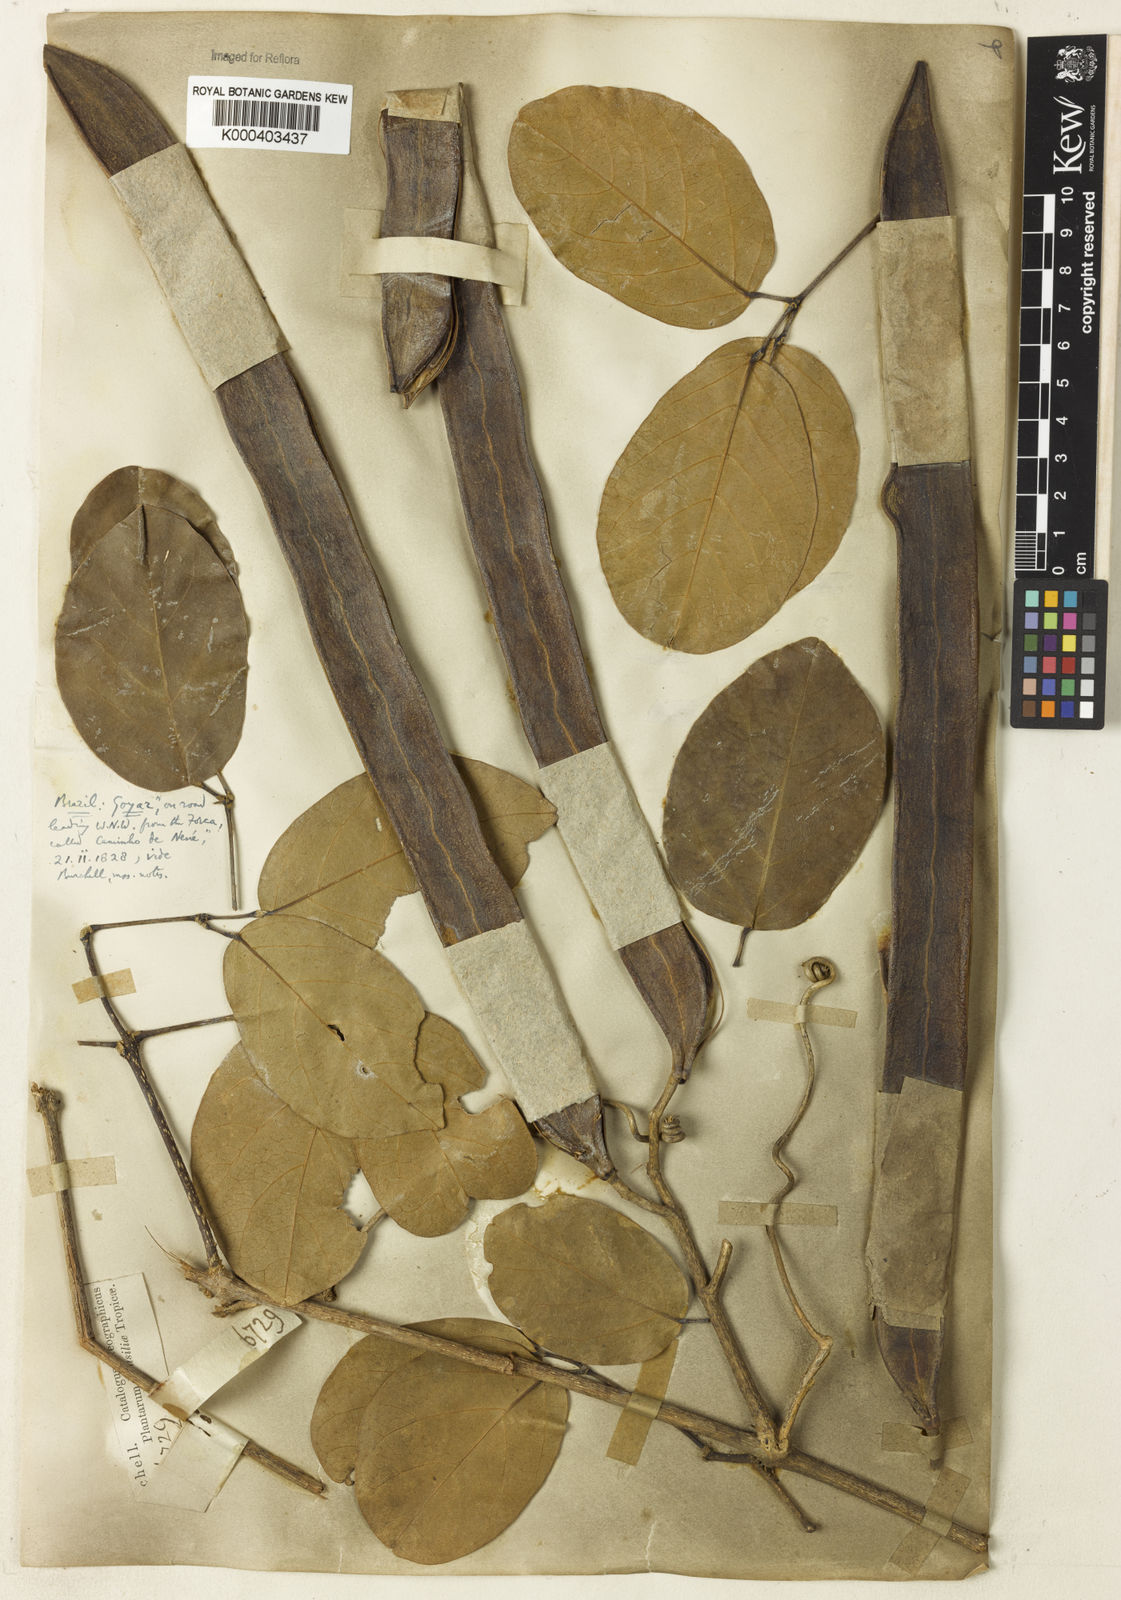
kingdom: Plantae
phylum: Tracheophyta
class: Magnoliopsida
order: Rosales
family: Rhamnaceae
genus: Arrabidaea
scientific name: Arrabidaea
